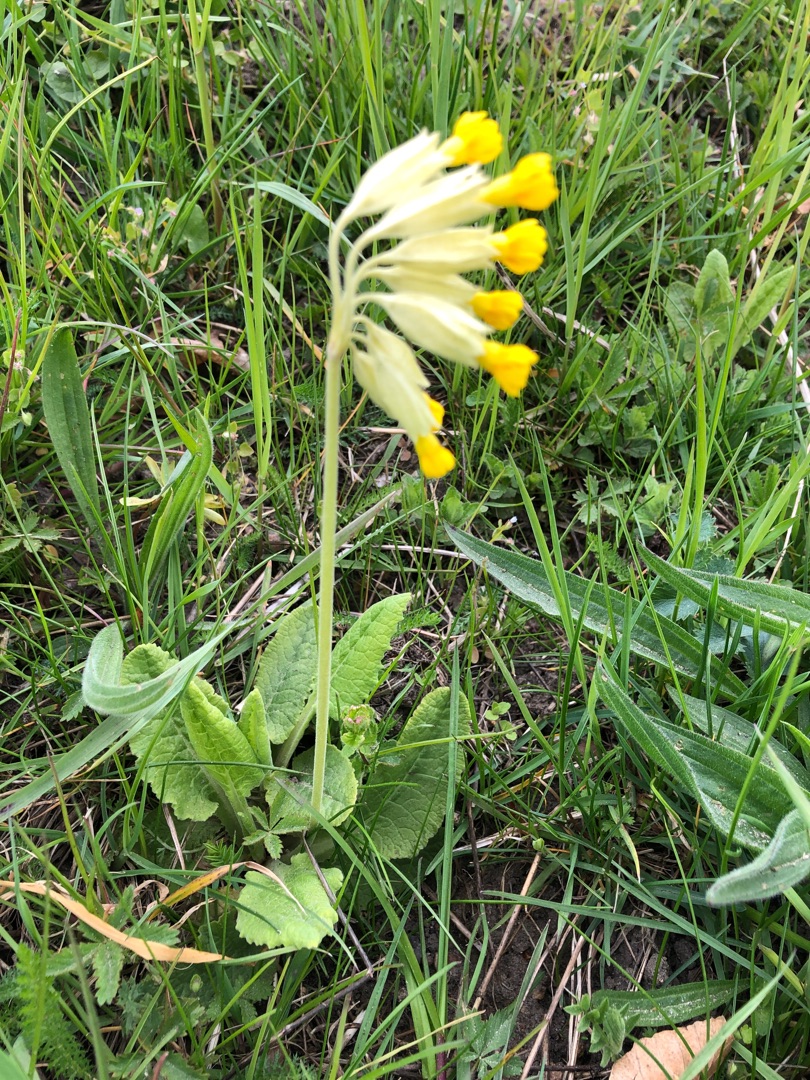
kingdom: Plantae
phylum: Tracheophyta
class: Magnoliopsida
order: Ericales
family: Primulaceae
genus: Primula
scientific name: Primula veris
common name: Hulkravet kodriver
